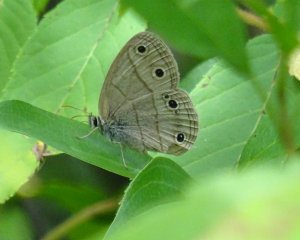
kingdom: Animalia
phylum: Arthropoda
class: Insecta
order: Lepidoptera
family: Nymphalidae
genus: Euptychia
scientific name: Euptychia cymela
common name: Little Wood Satyr
